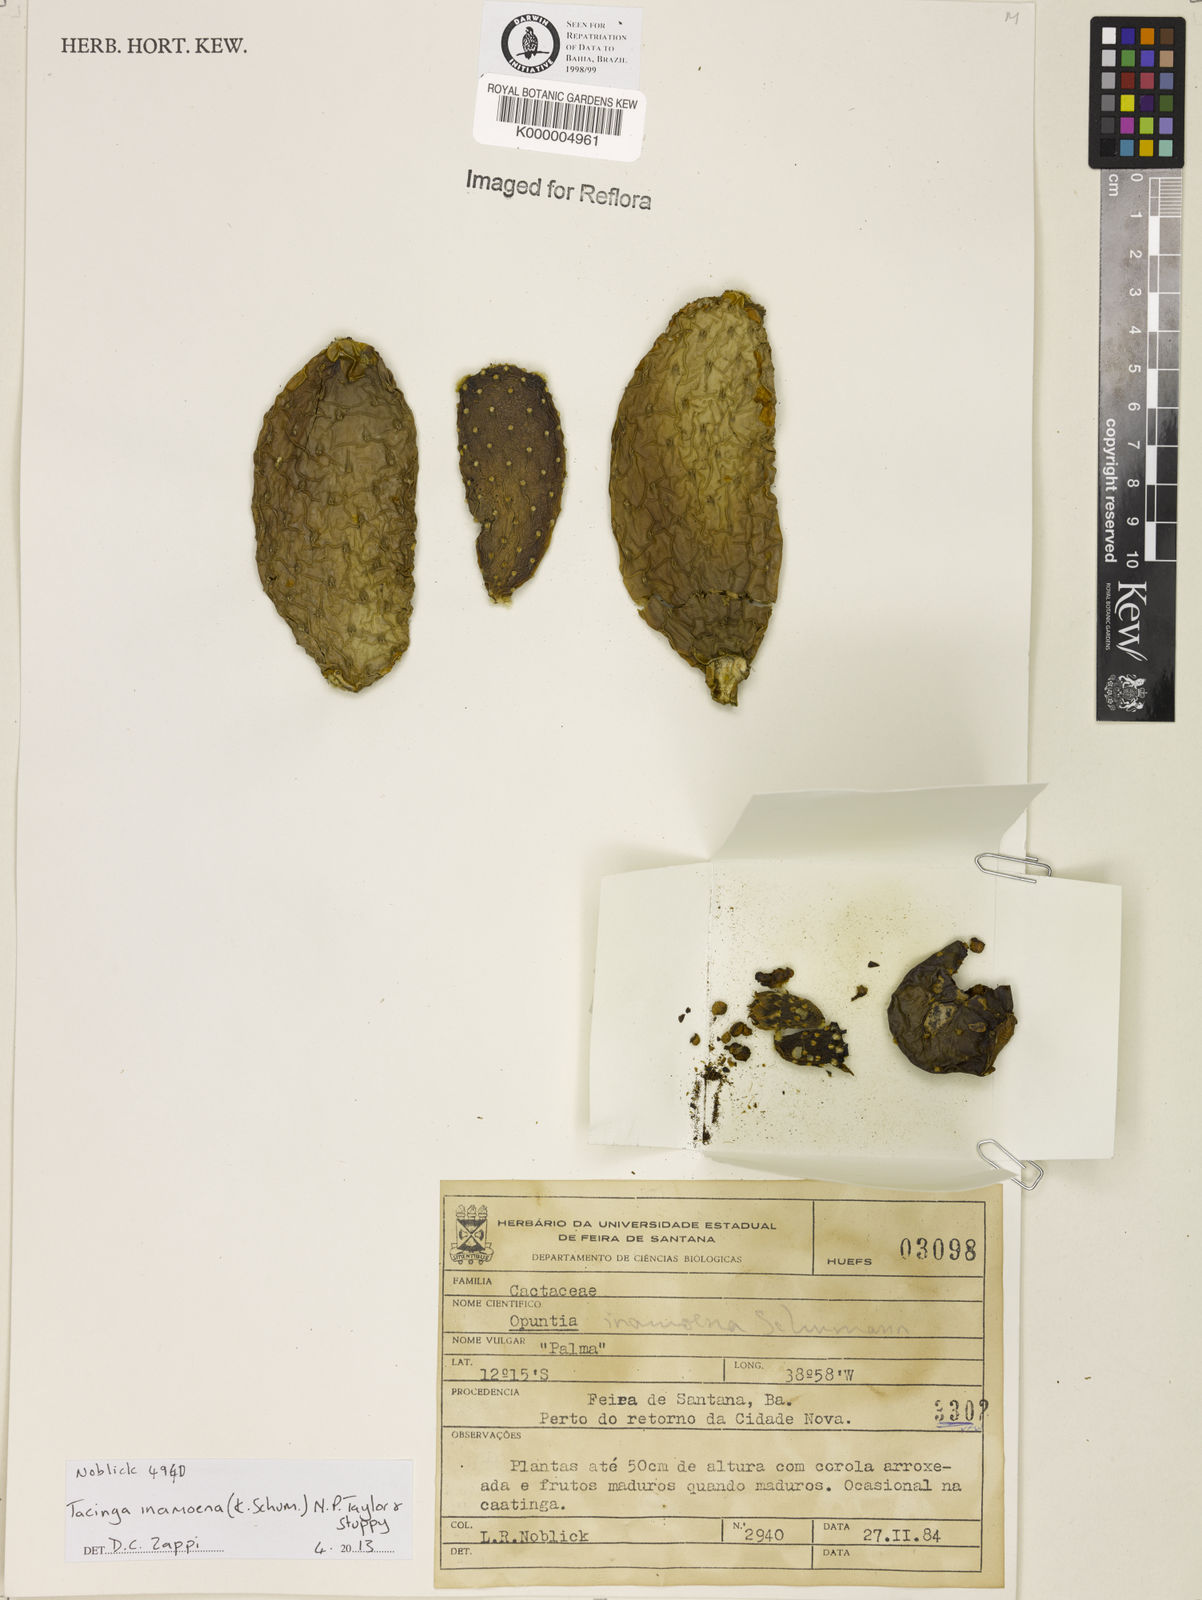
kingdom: Plantae
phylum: Tracheophyta
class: Magnoliopsida
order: Caryophyllales
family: Cactaceae
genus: Tacinga
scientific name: Tacinga inamoena
